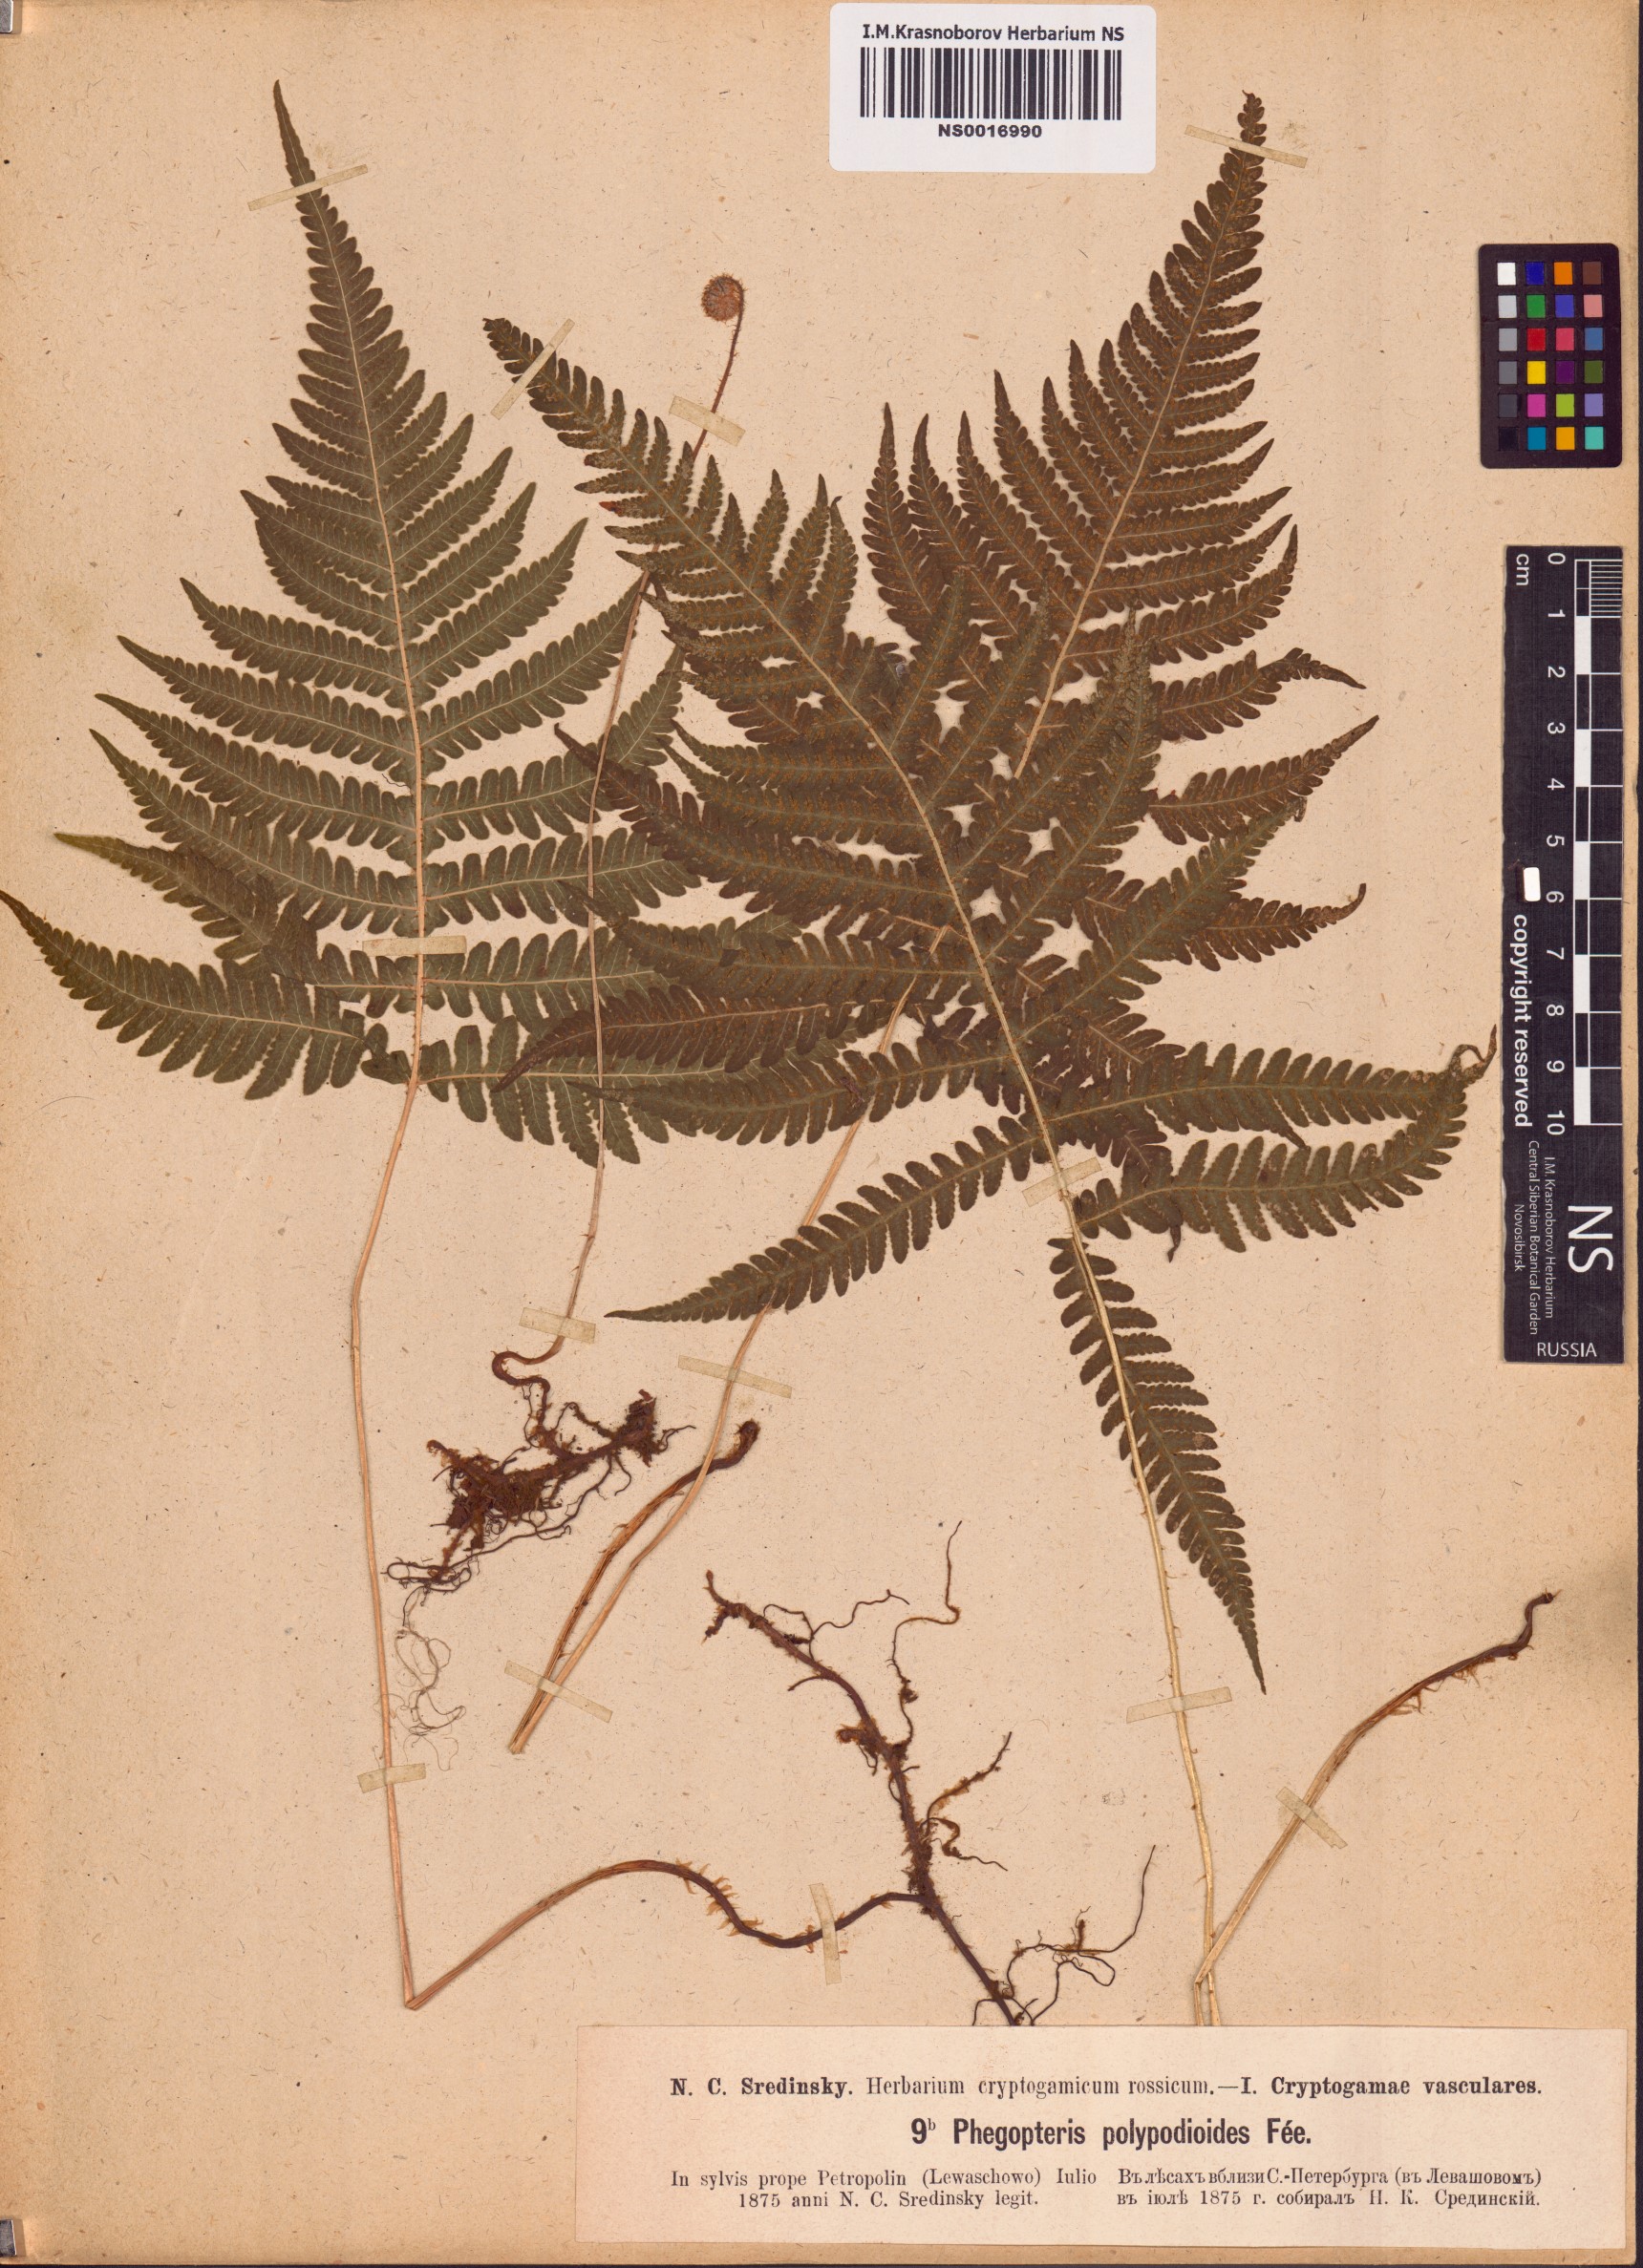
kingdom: Plantae
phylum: Tracheophyta
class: Polypodiopsida
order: Polypodiales
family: Thelypteridaceae
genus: Phegopteris
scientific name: Phegopteris connectilis
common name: Beech fern
